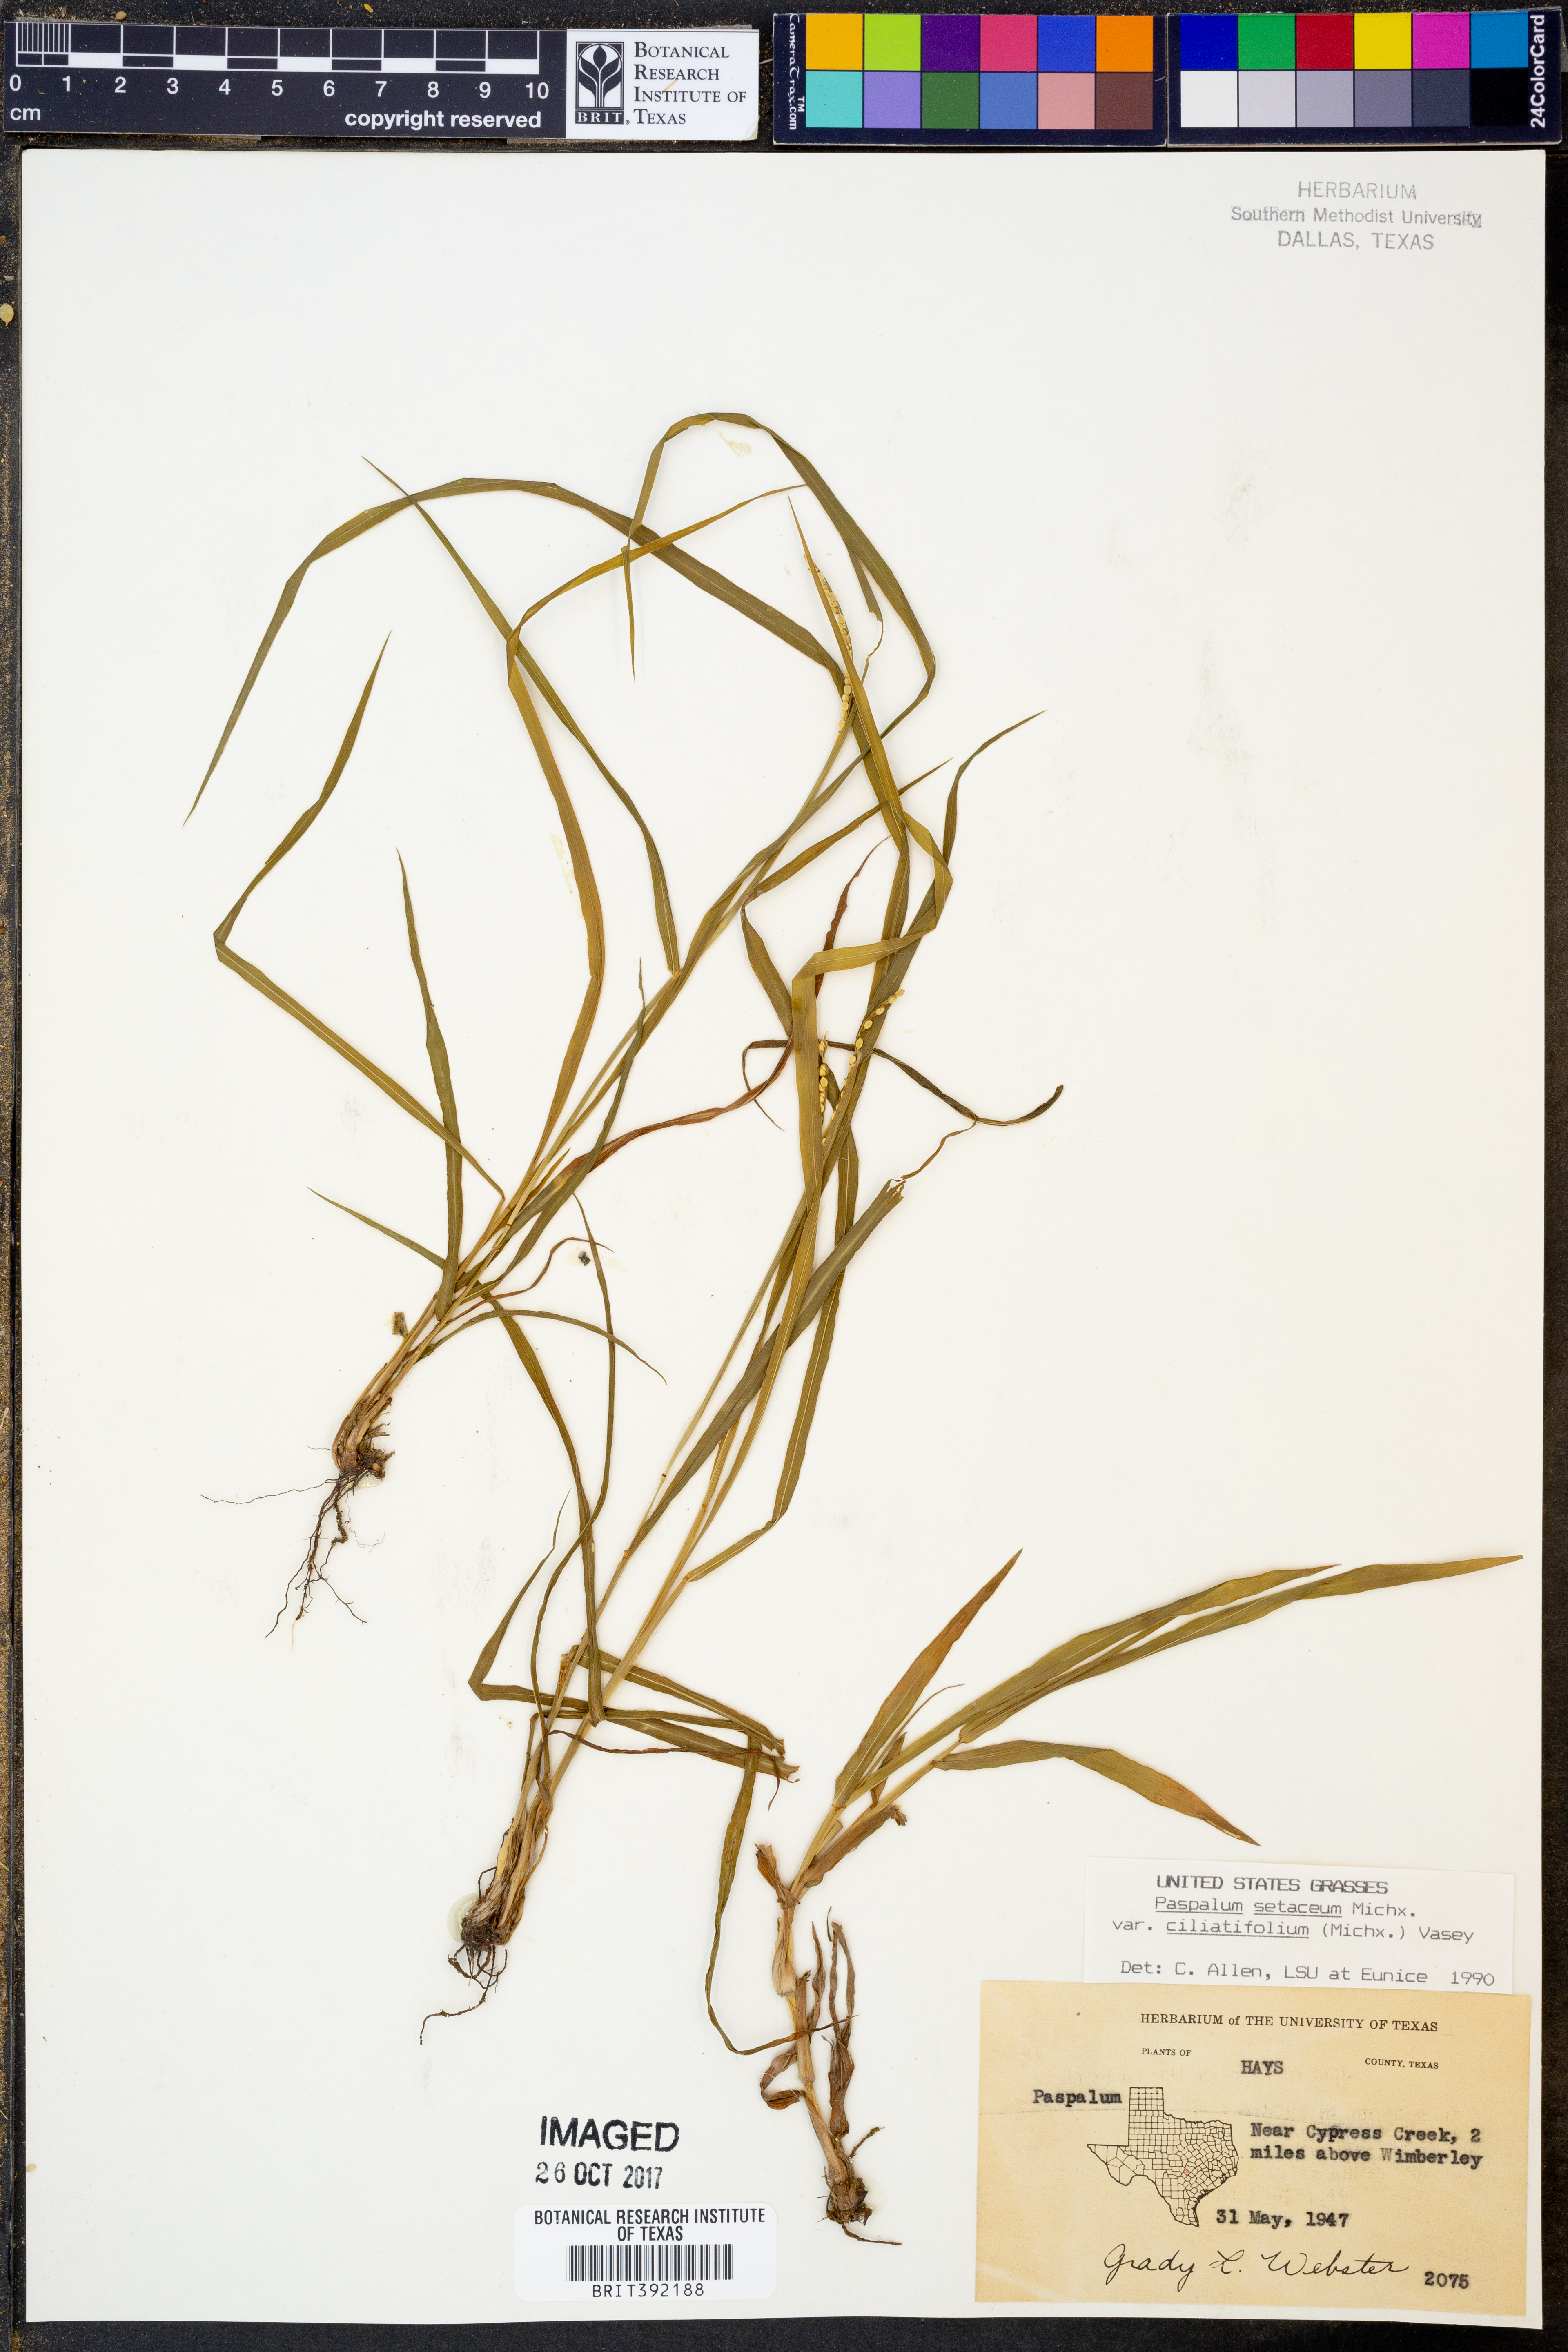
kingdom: Plantae
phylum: Tracheophyta
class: Liliopsida
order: Poales
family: Poaceae
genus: Paspalum
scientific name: Paspalum setaceum
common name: Slender paspalum
